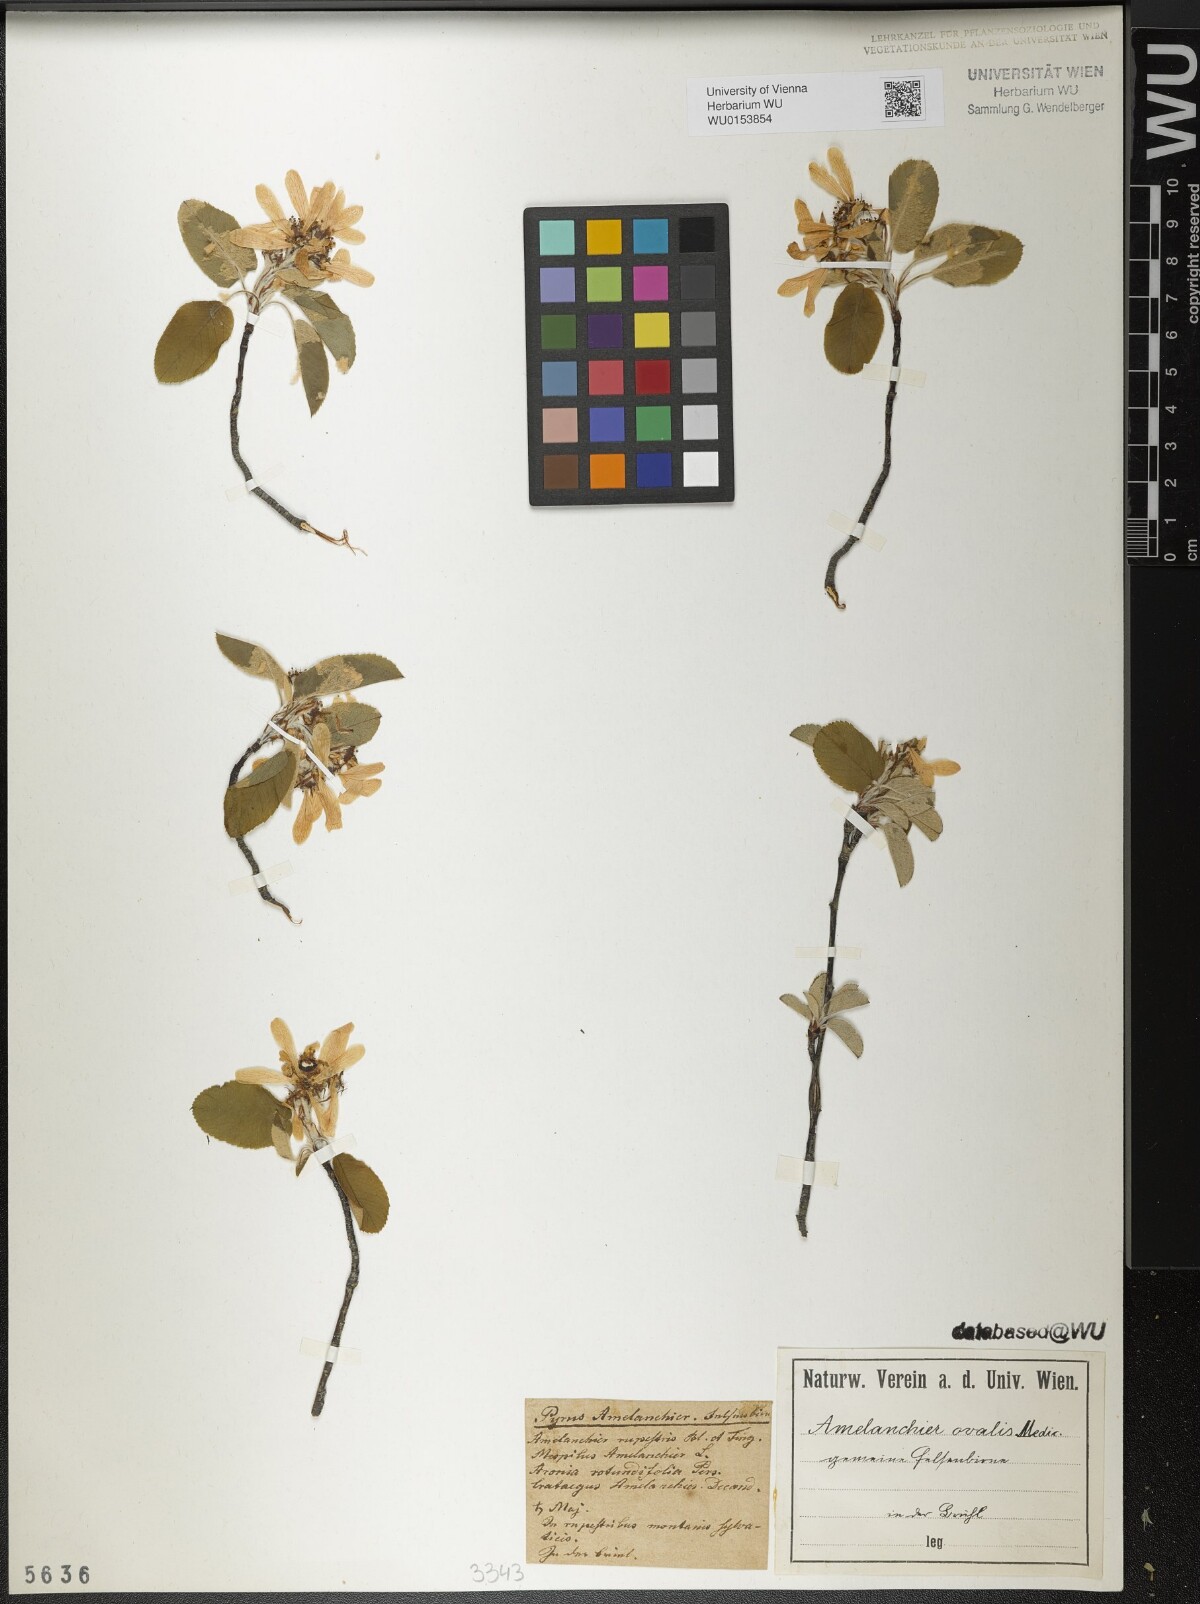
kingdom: Plantae
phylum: Tracheophyta
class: Magnoliopsida
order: Rosales
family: Rosaceae
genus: Amelanchier
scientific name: Amelanchier ovalis
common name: Serviceberry
